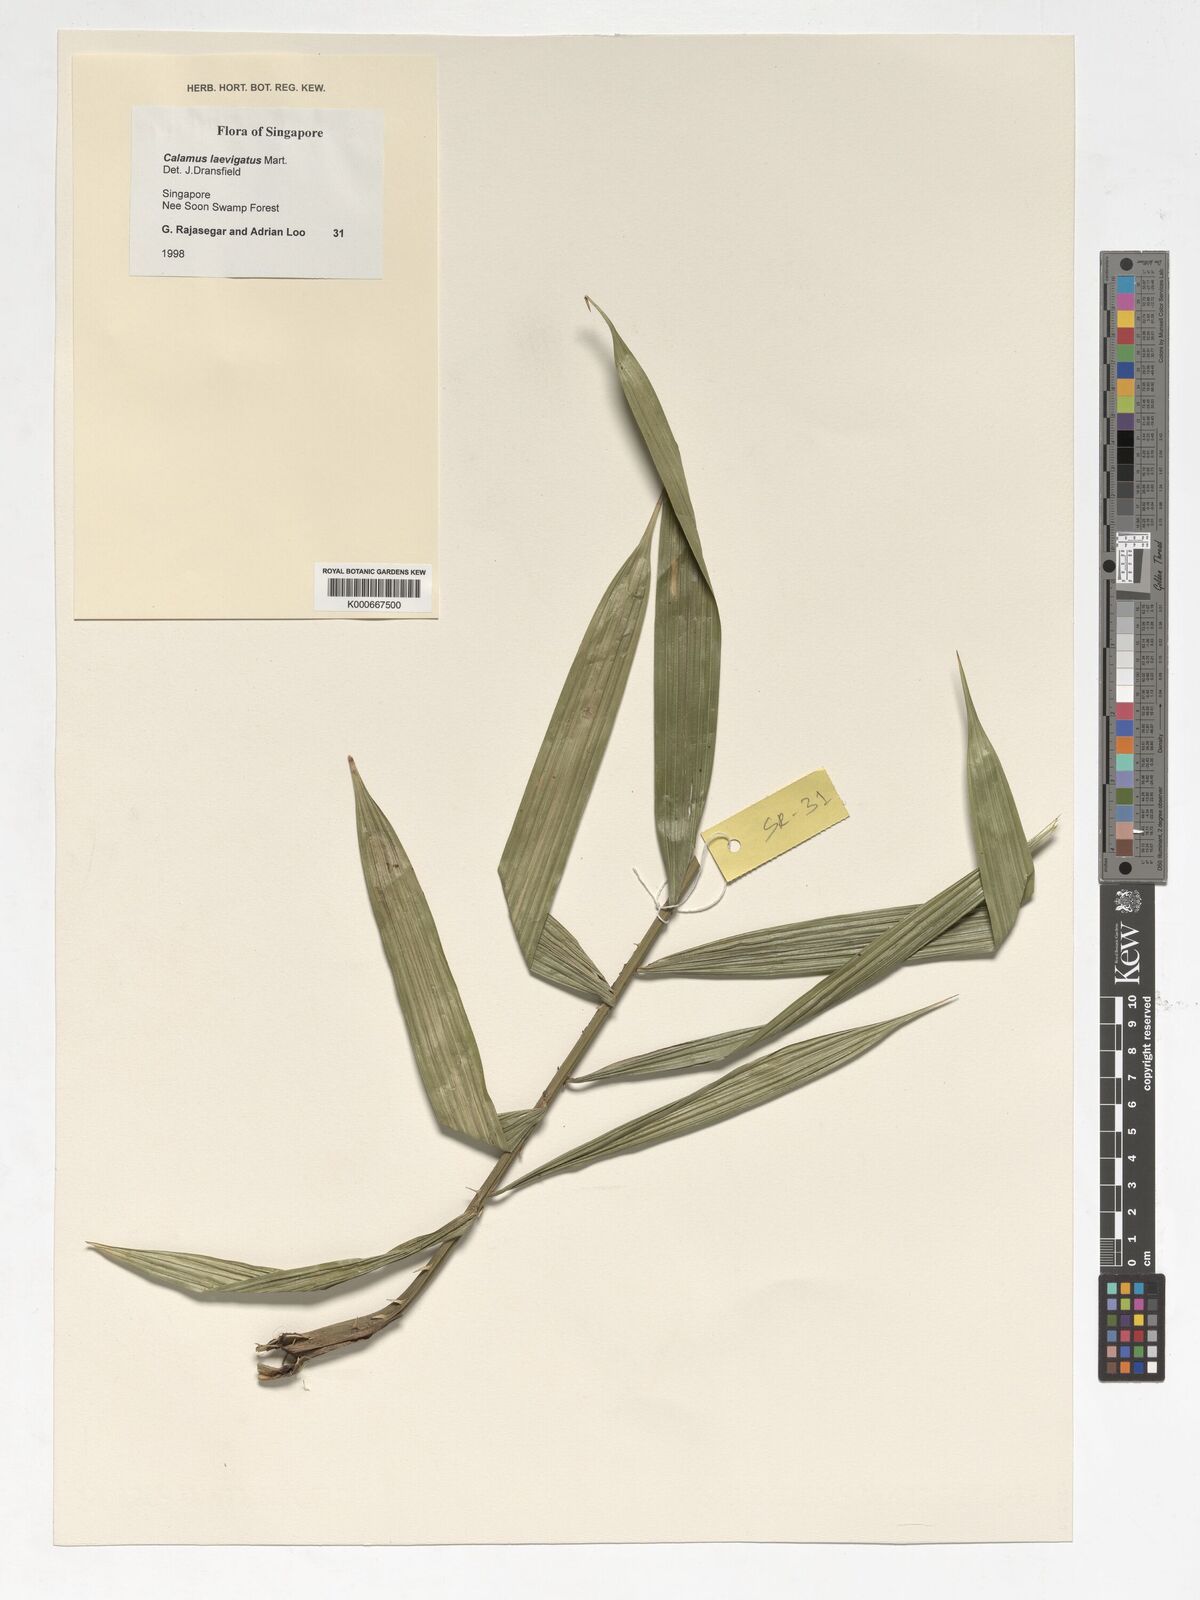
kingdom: Plantae
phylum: Tracheophyta
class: Liliopsida
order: Arecales
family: Arecaceae
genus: Calamus
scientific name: Calamus plicatus
